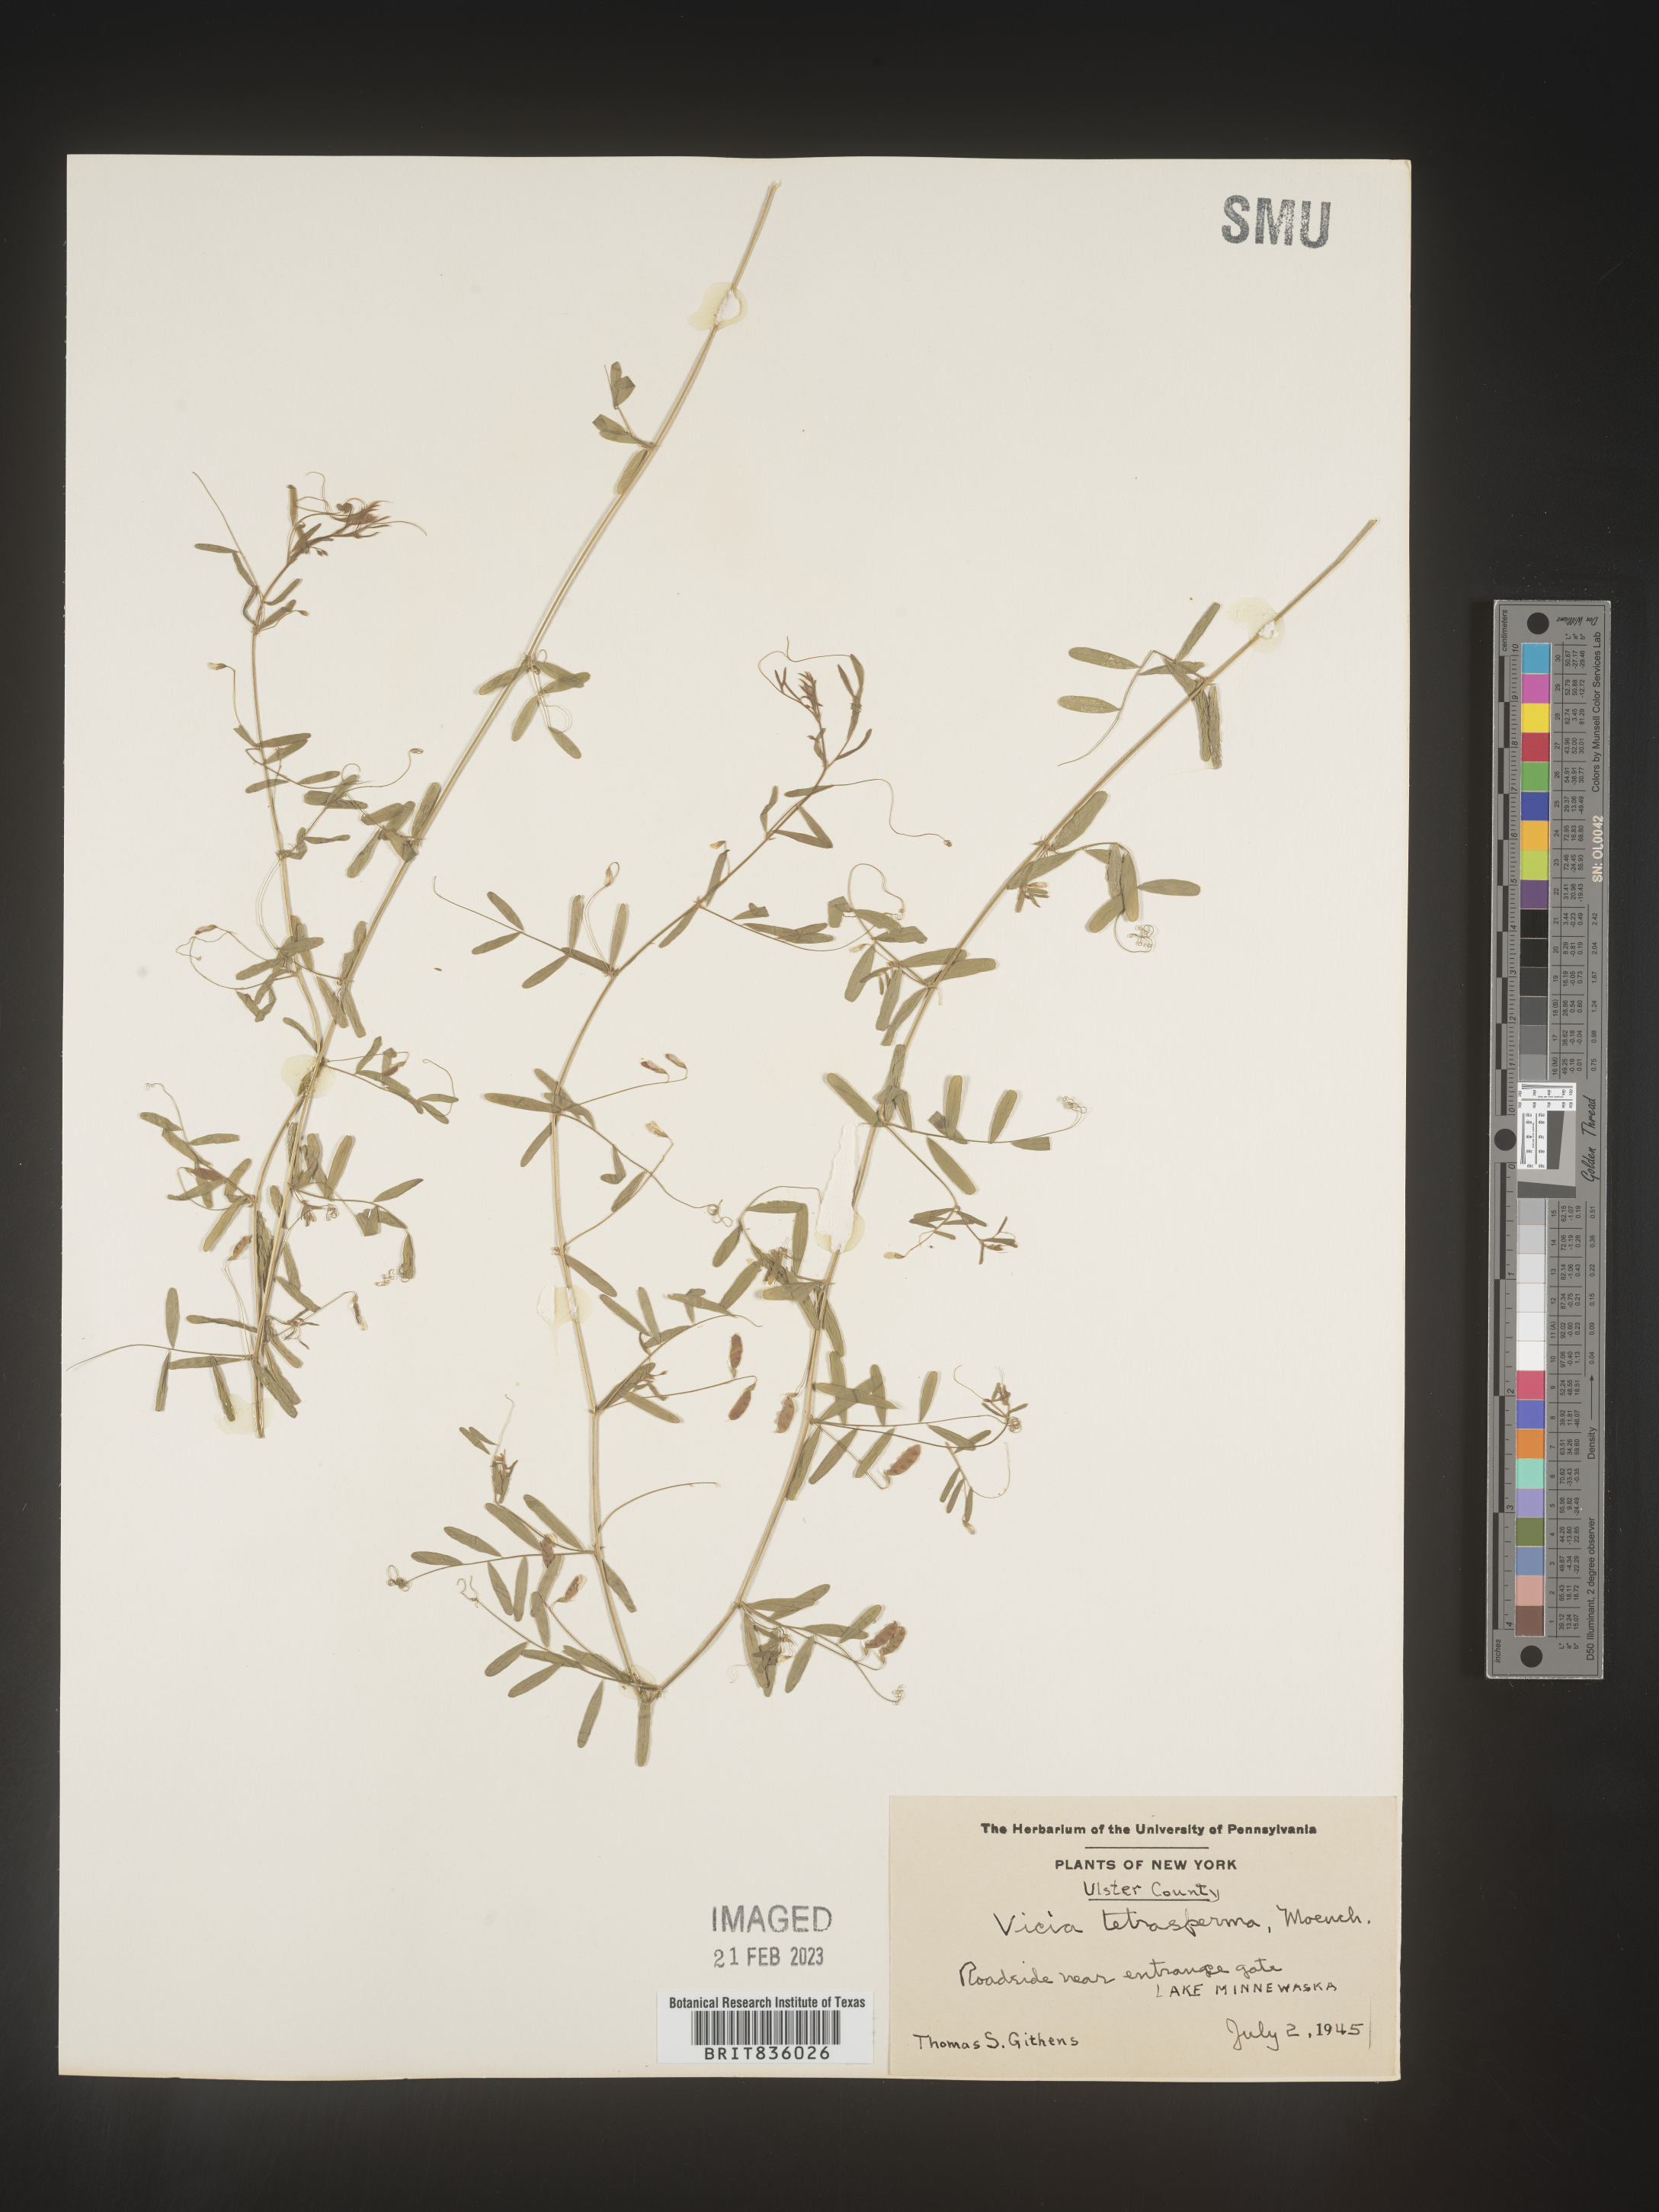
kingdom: Plantae
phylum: Tracheophyta
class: Magnoliopsida
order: Fabales
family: Fabaceae
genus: Vicia
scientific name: Vicia tetrasperma
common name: Smooth tare
